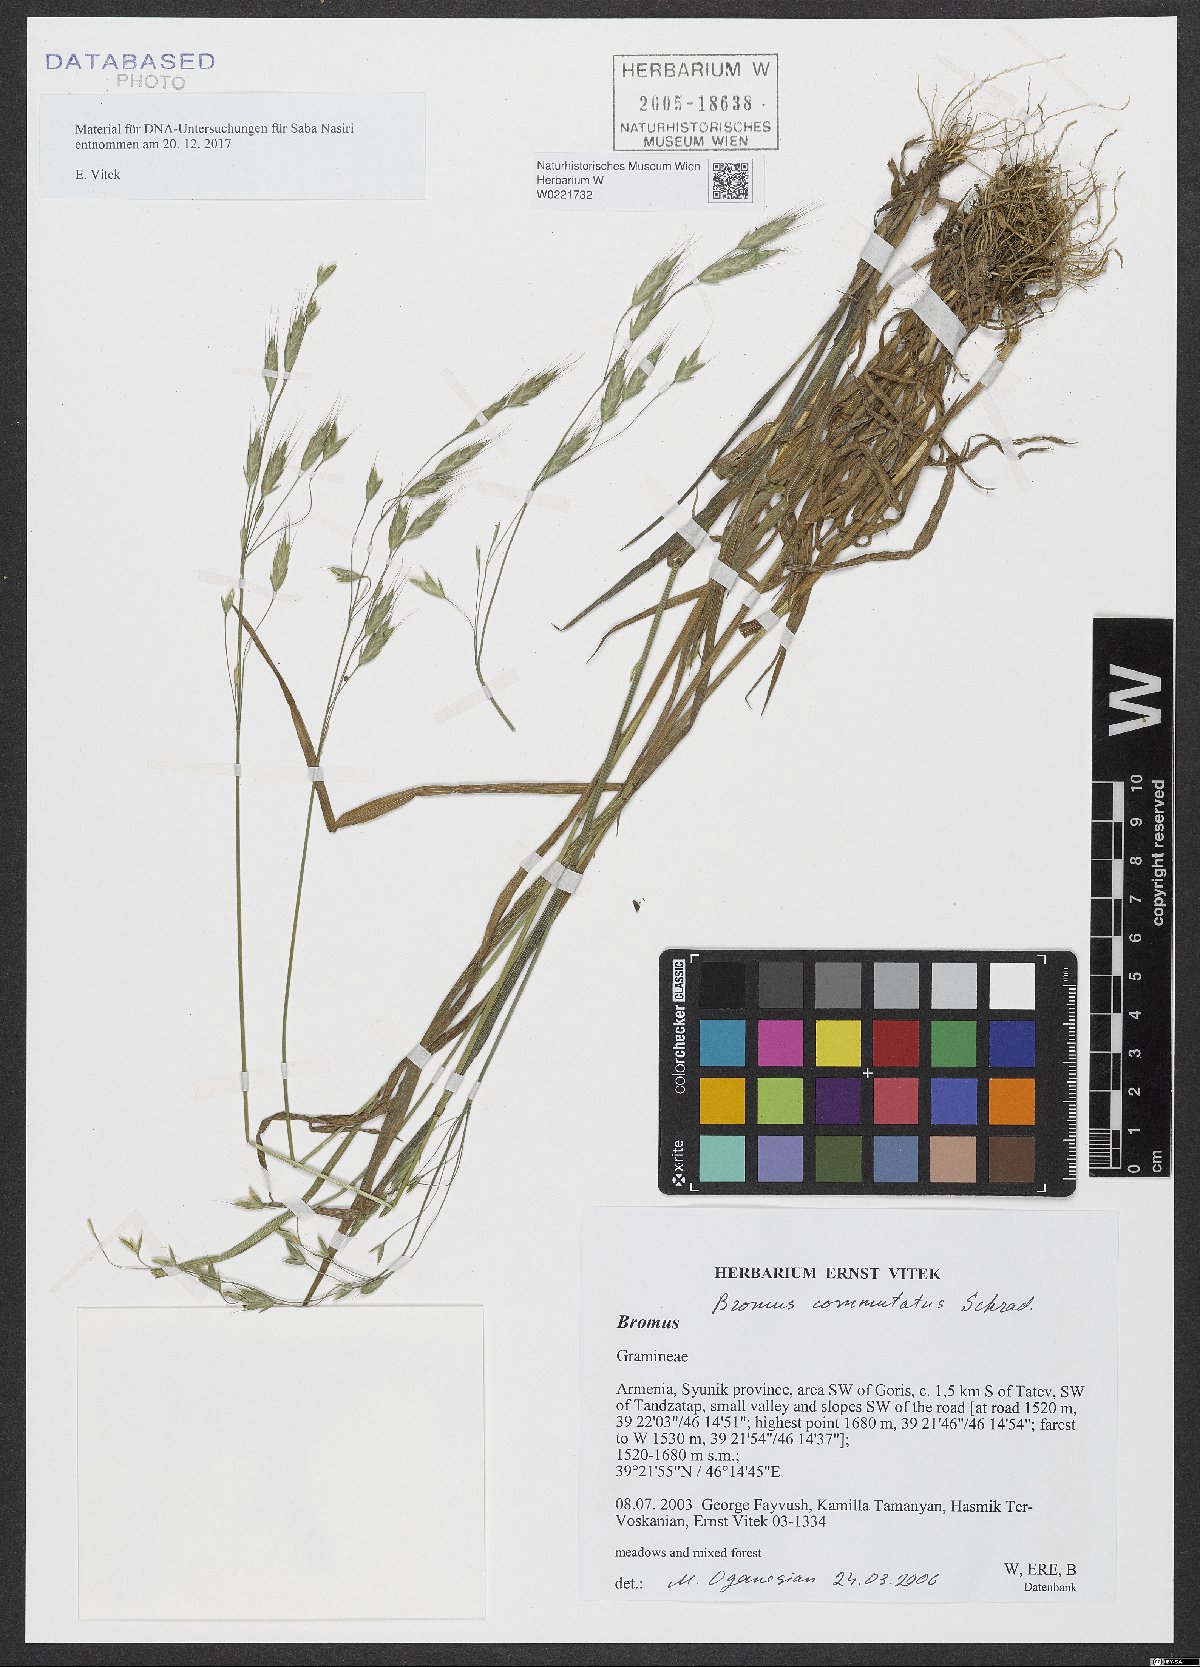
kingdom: Plantae
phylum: Tracheophyta
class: Liliopsida
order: Poales
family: Poaceae
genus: Bromus
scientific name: Bromus commutatus
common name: Meadow brome
